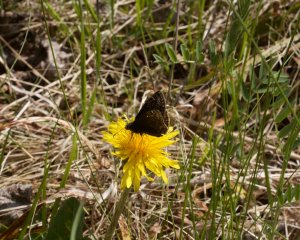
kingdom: Animalia
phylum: Arthropoda
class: Insecta
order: Lepidoptera
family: Hesperiidae
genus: Gesta
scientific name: Gesta
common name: Wild Indigo Duskywing
